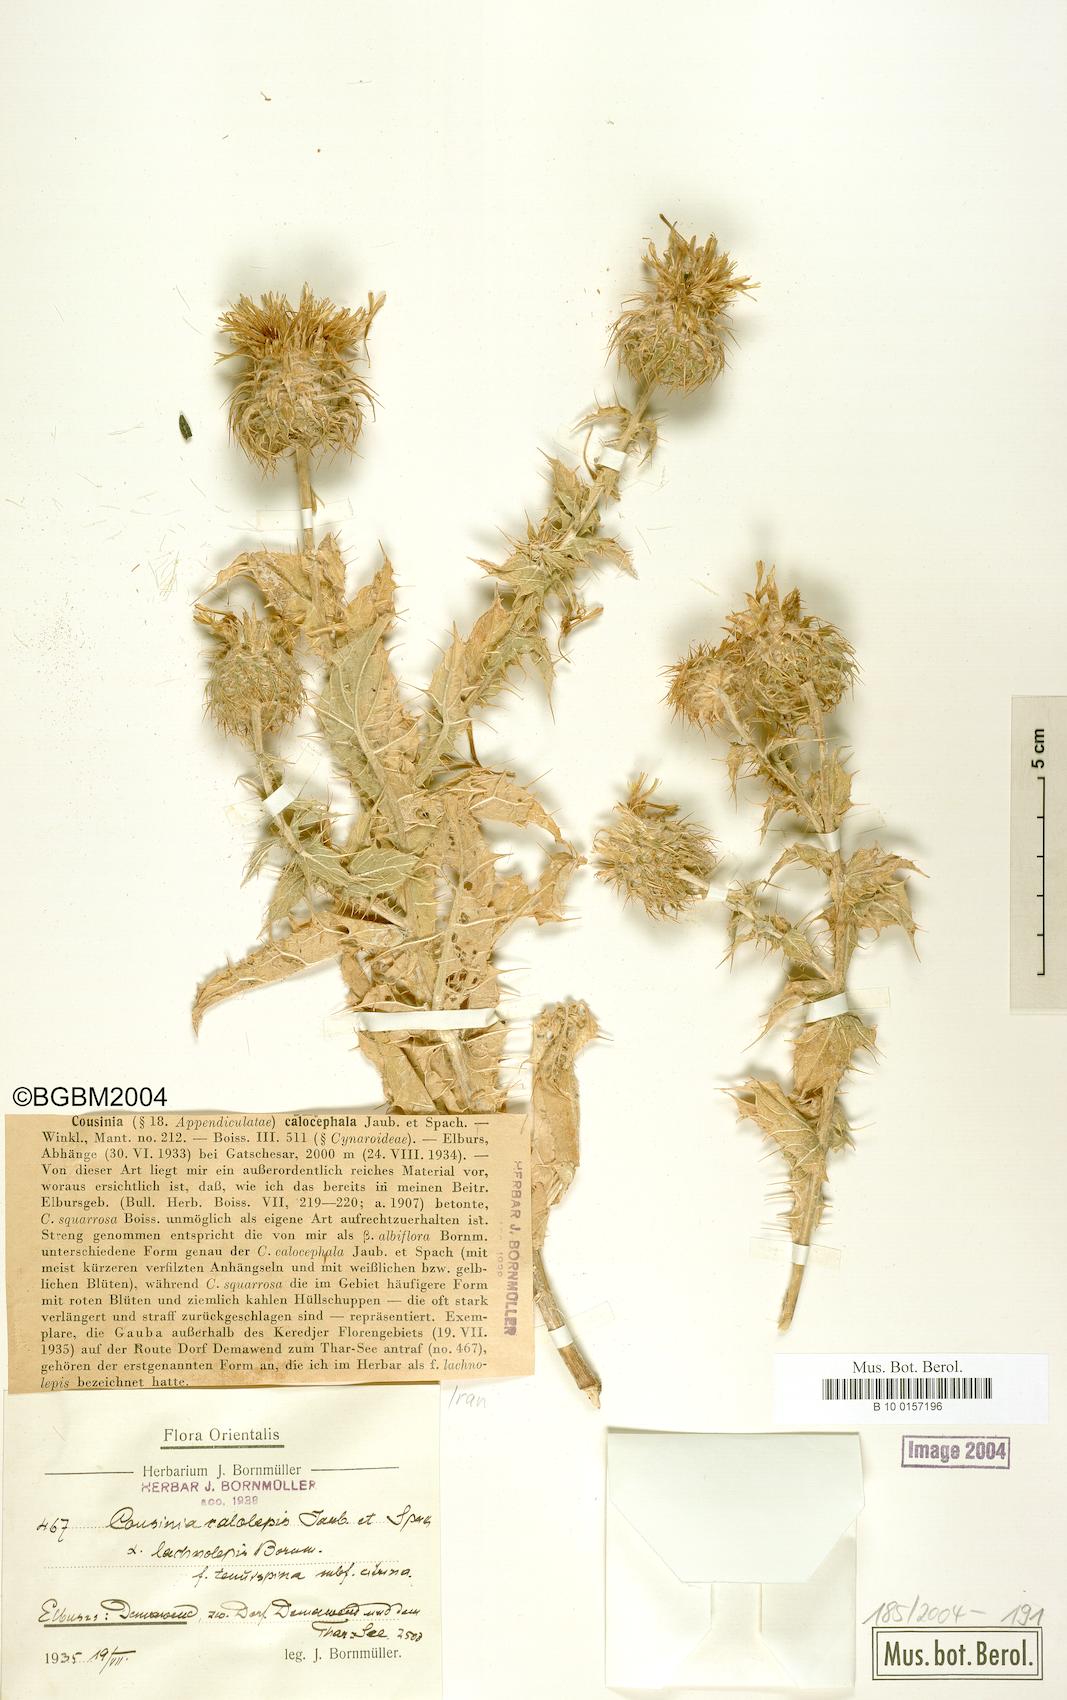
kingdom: Plantae
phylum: Tracheophyta
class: Magnoliopsida
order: Asterales
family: Asteraceae
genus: Cousinia
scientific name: Cousinia calocephala
